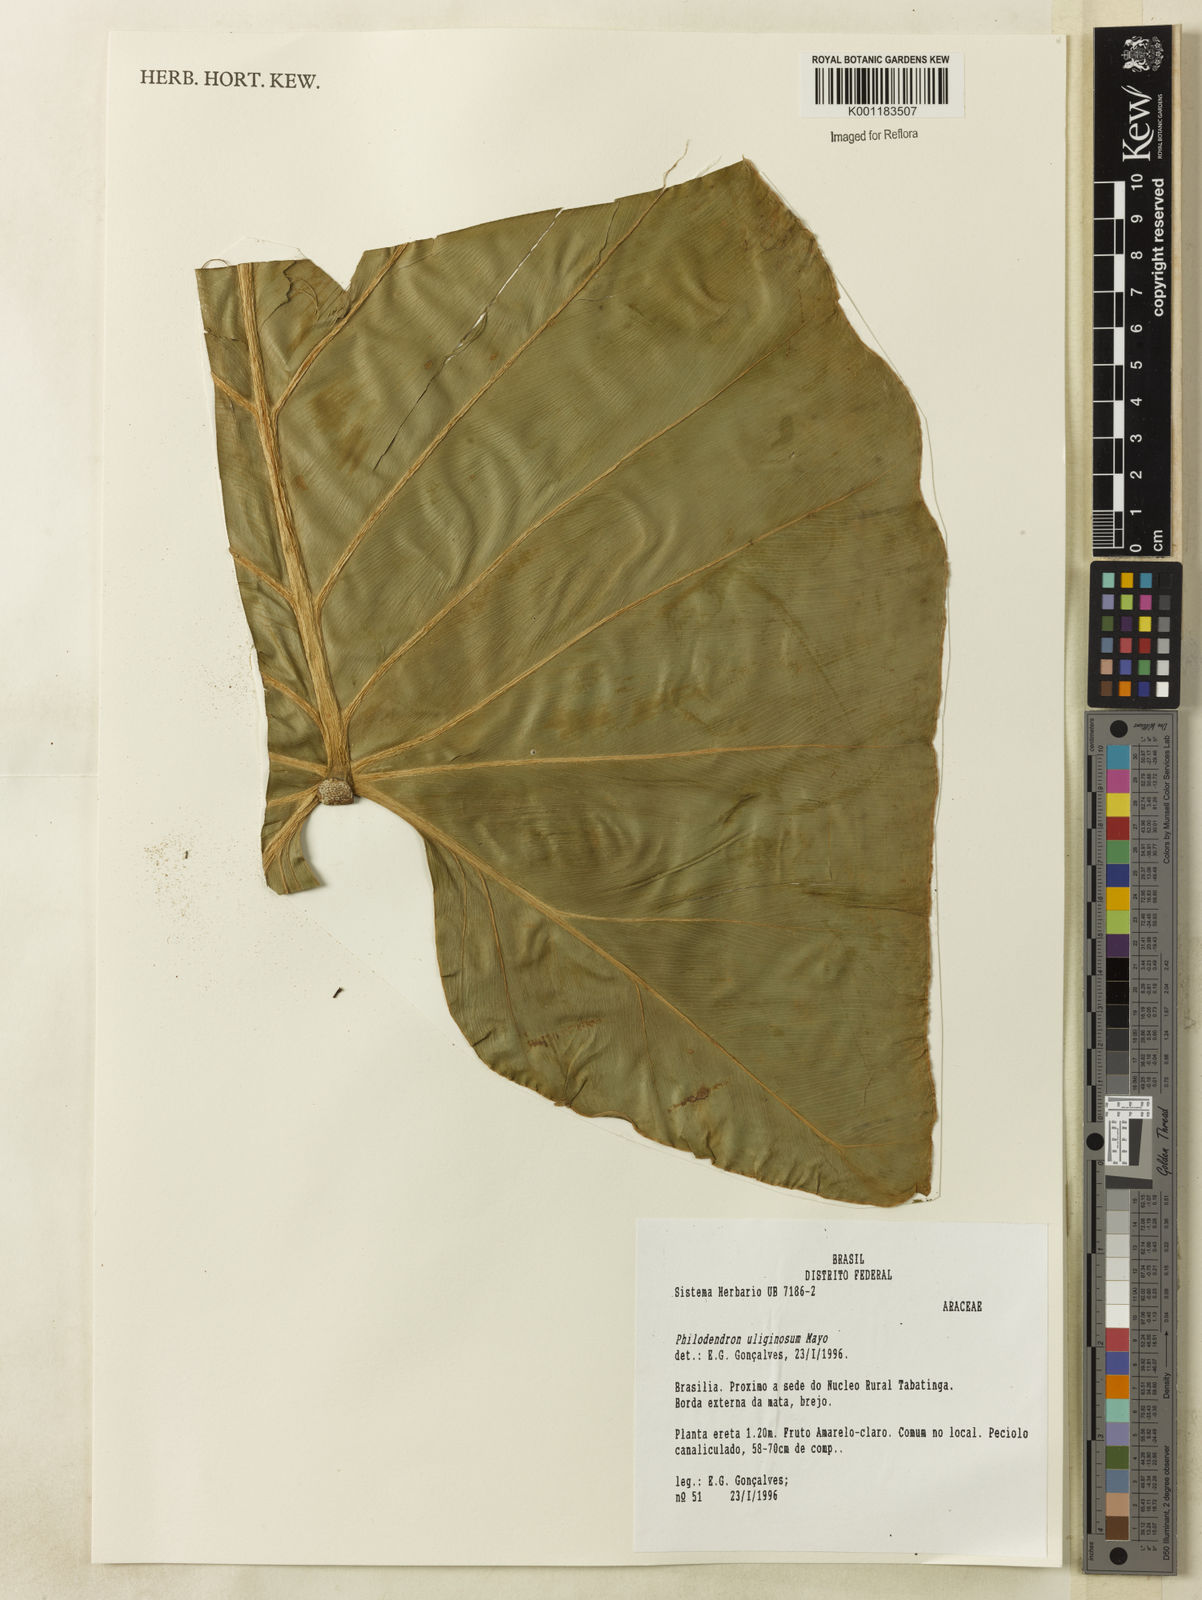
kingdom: Plantae
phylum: Tracheophyta
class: Liliopsida
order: Alismatales
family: Araceae
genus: Thaumatophyllum
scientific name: Thaumatophyllum uliginosum
